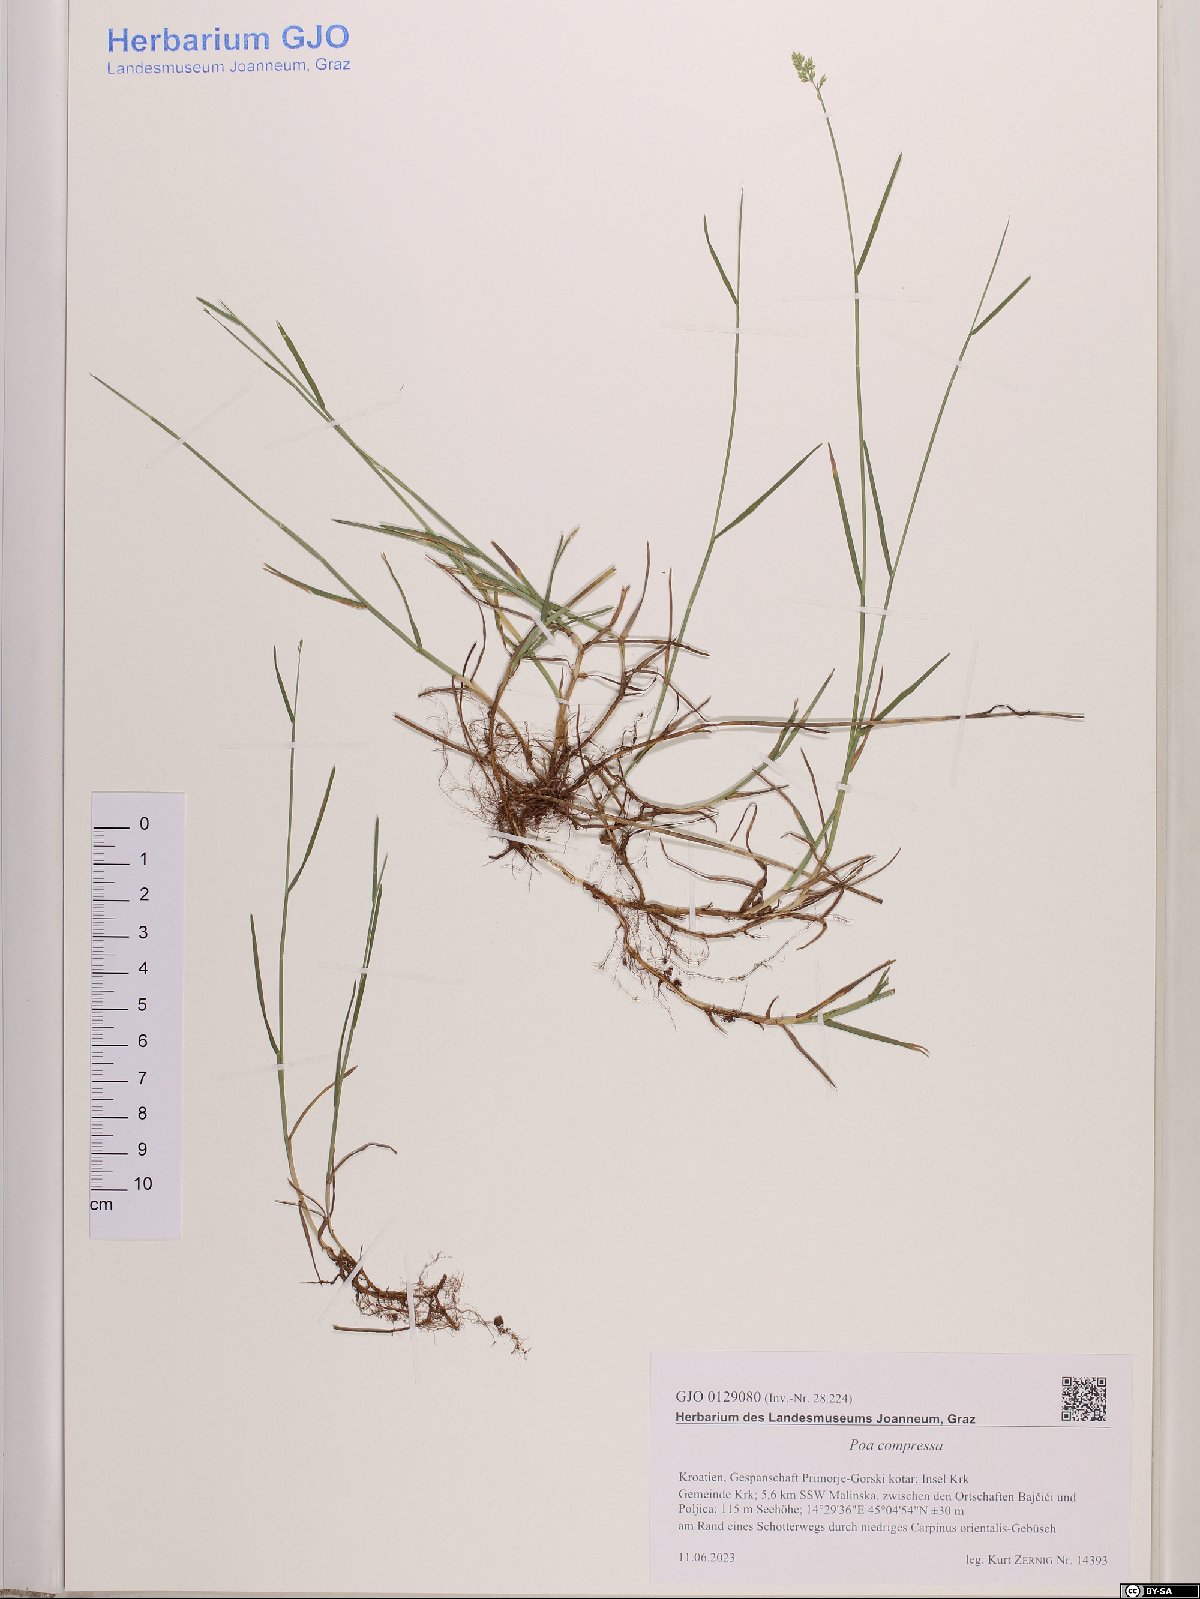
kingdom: Plantae
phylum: Tracheophyta
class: Liliopsida
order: Poales
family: Poaceae
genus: Poa
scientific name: Poa compressa
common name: Canada bluegrass
